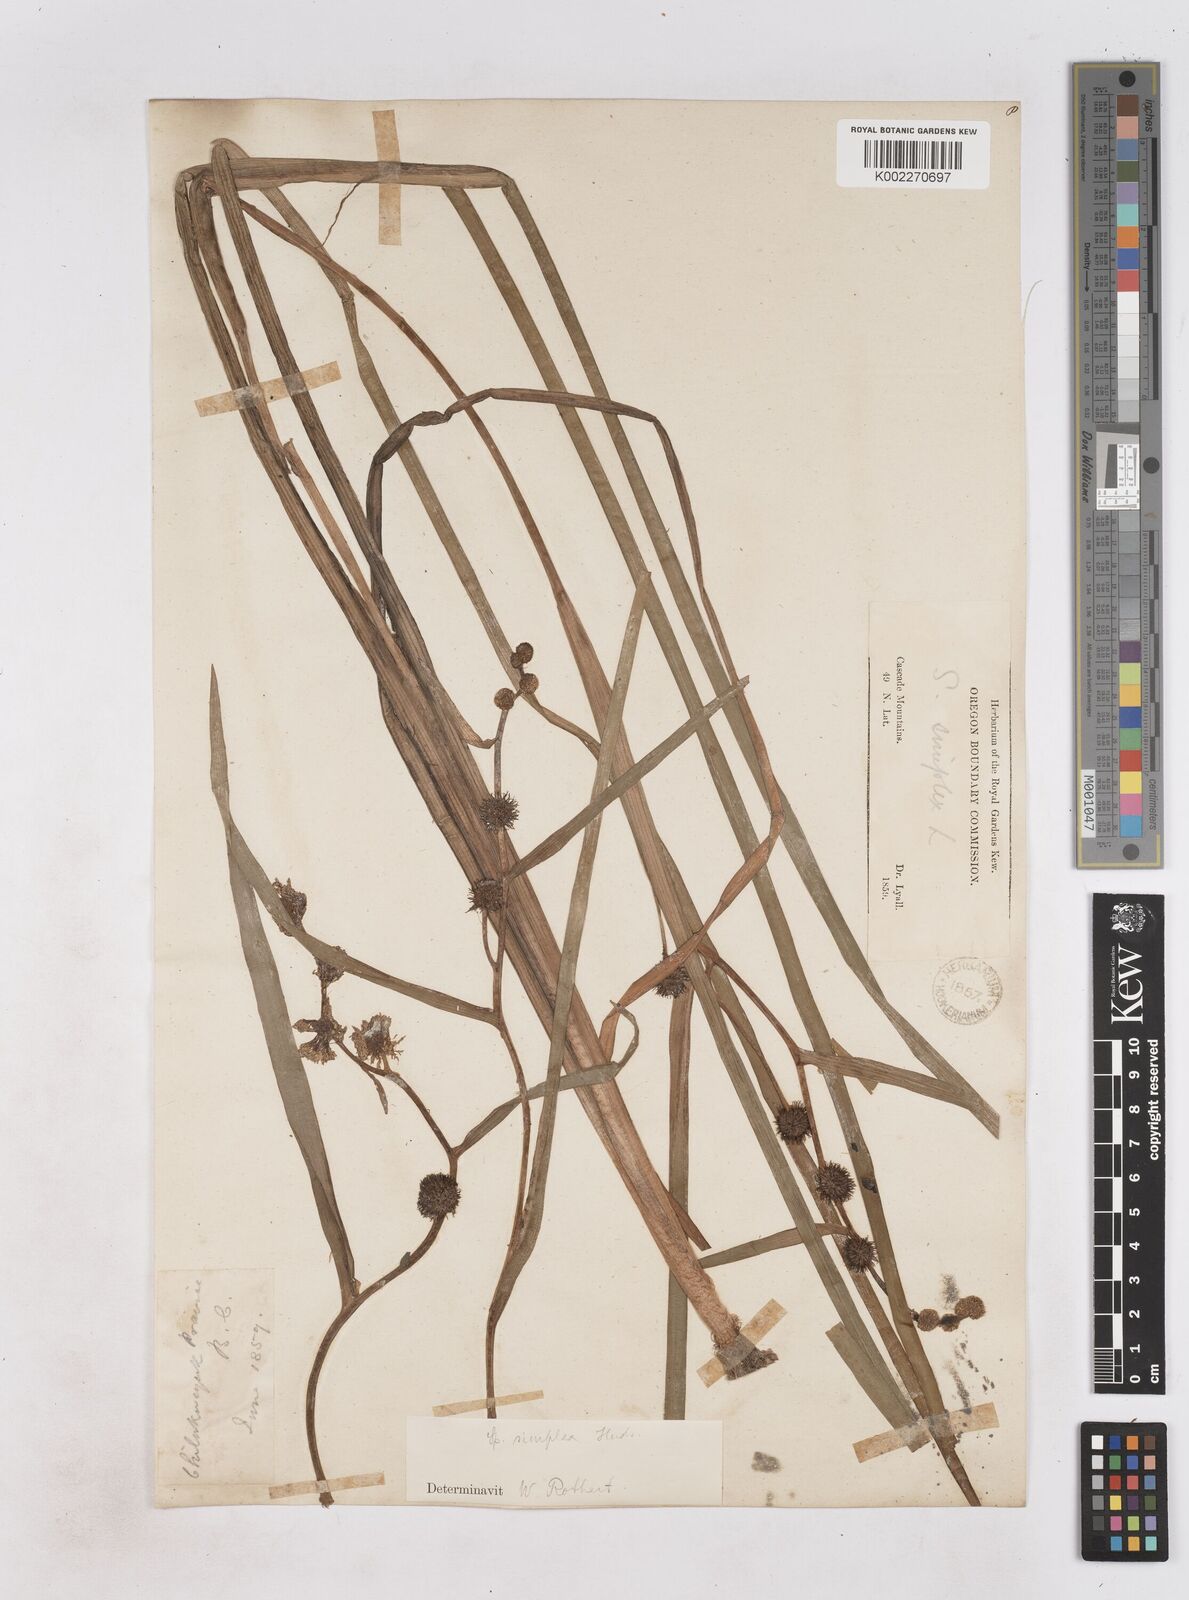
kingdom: Plantae
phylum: Tracheophyta
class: Liliopsida
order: Poales
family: Typhaceae
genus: Sparganium
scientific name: Sparganium emersum
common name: Unbranched bur-reed
